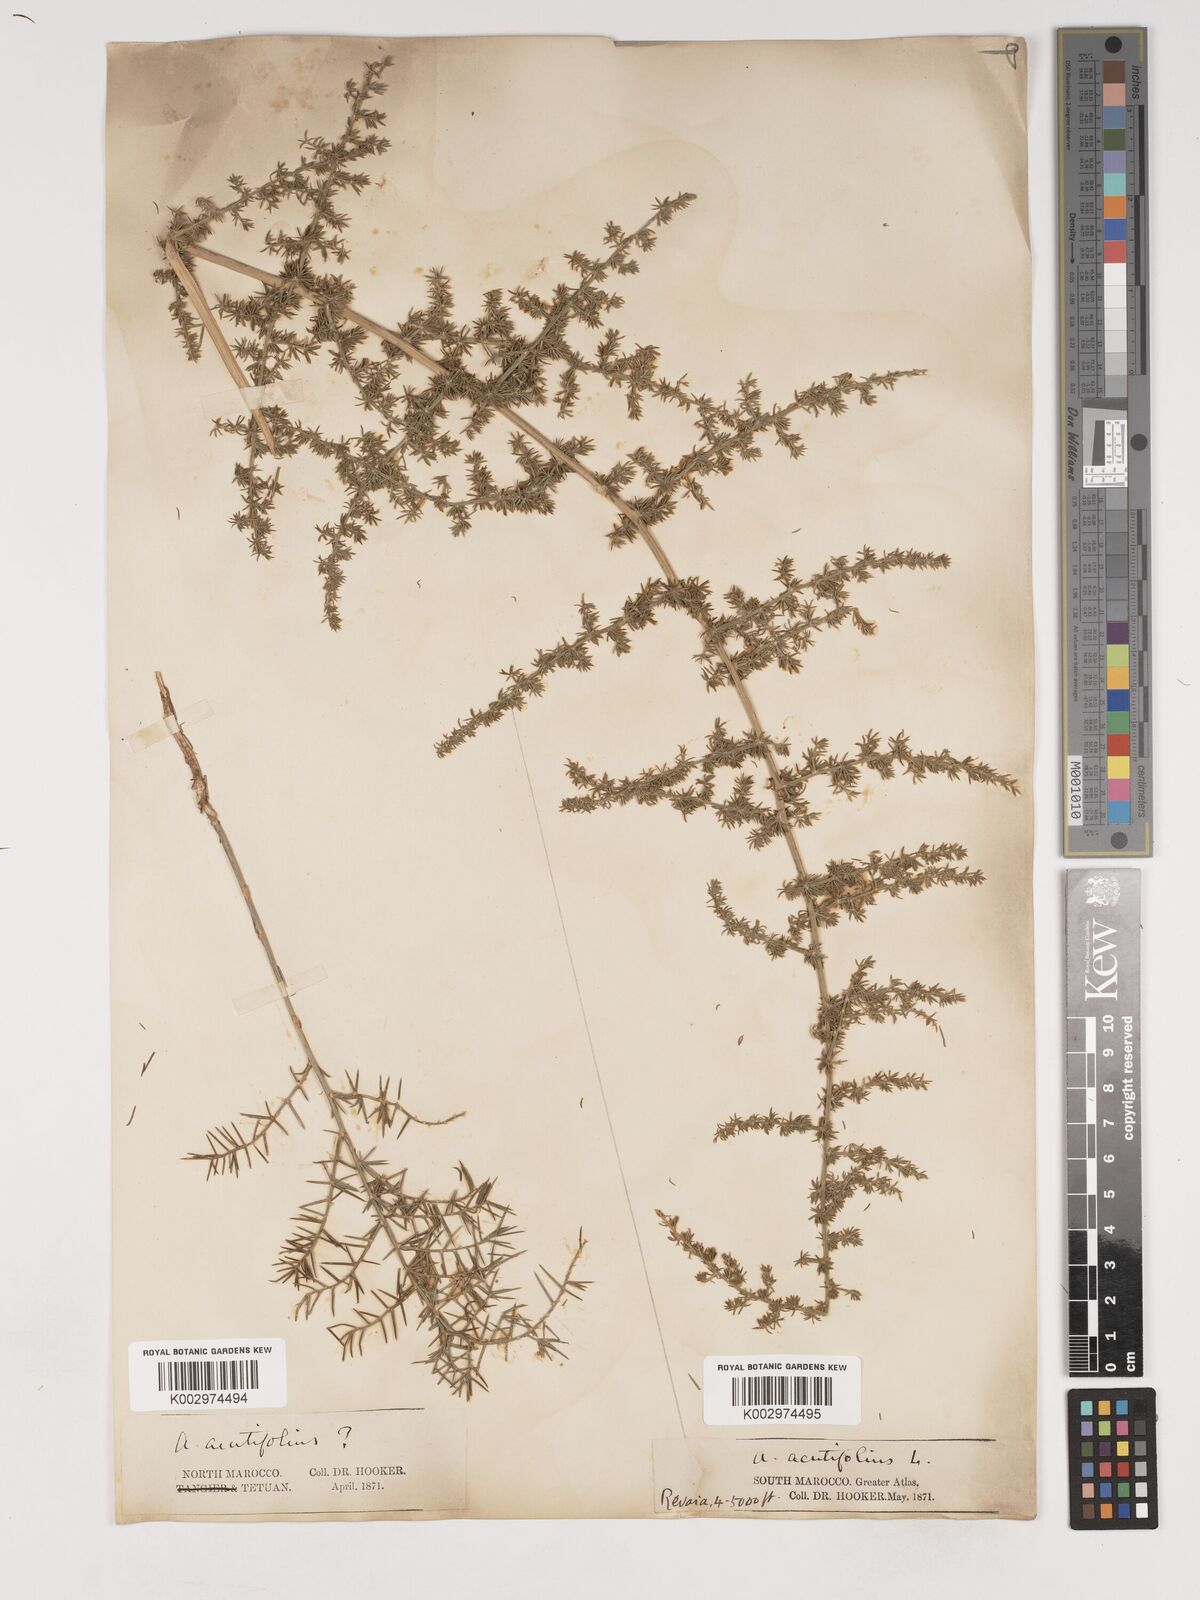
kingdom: Plantae
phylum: Tracheophyta
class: Liliopsida
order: Asparagales
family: Asparagaceae
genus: Asparagus
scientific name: Asparagus acutifolius
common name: Wild asparagus
